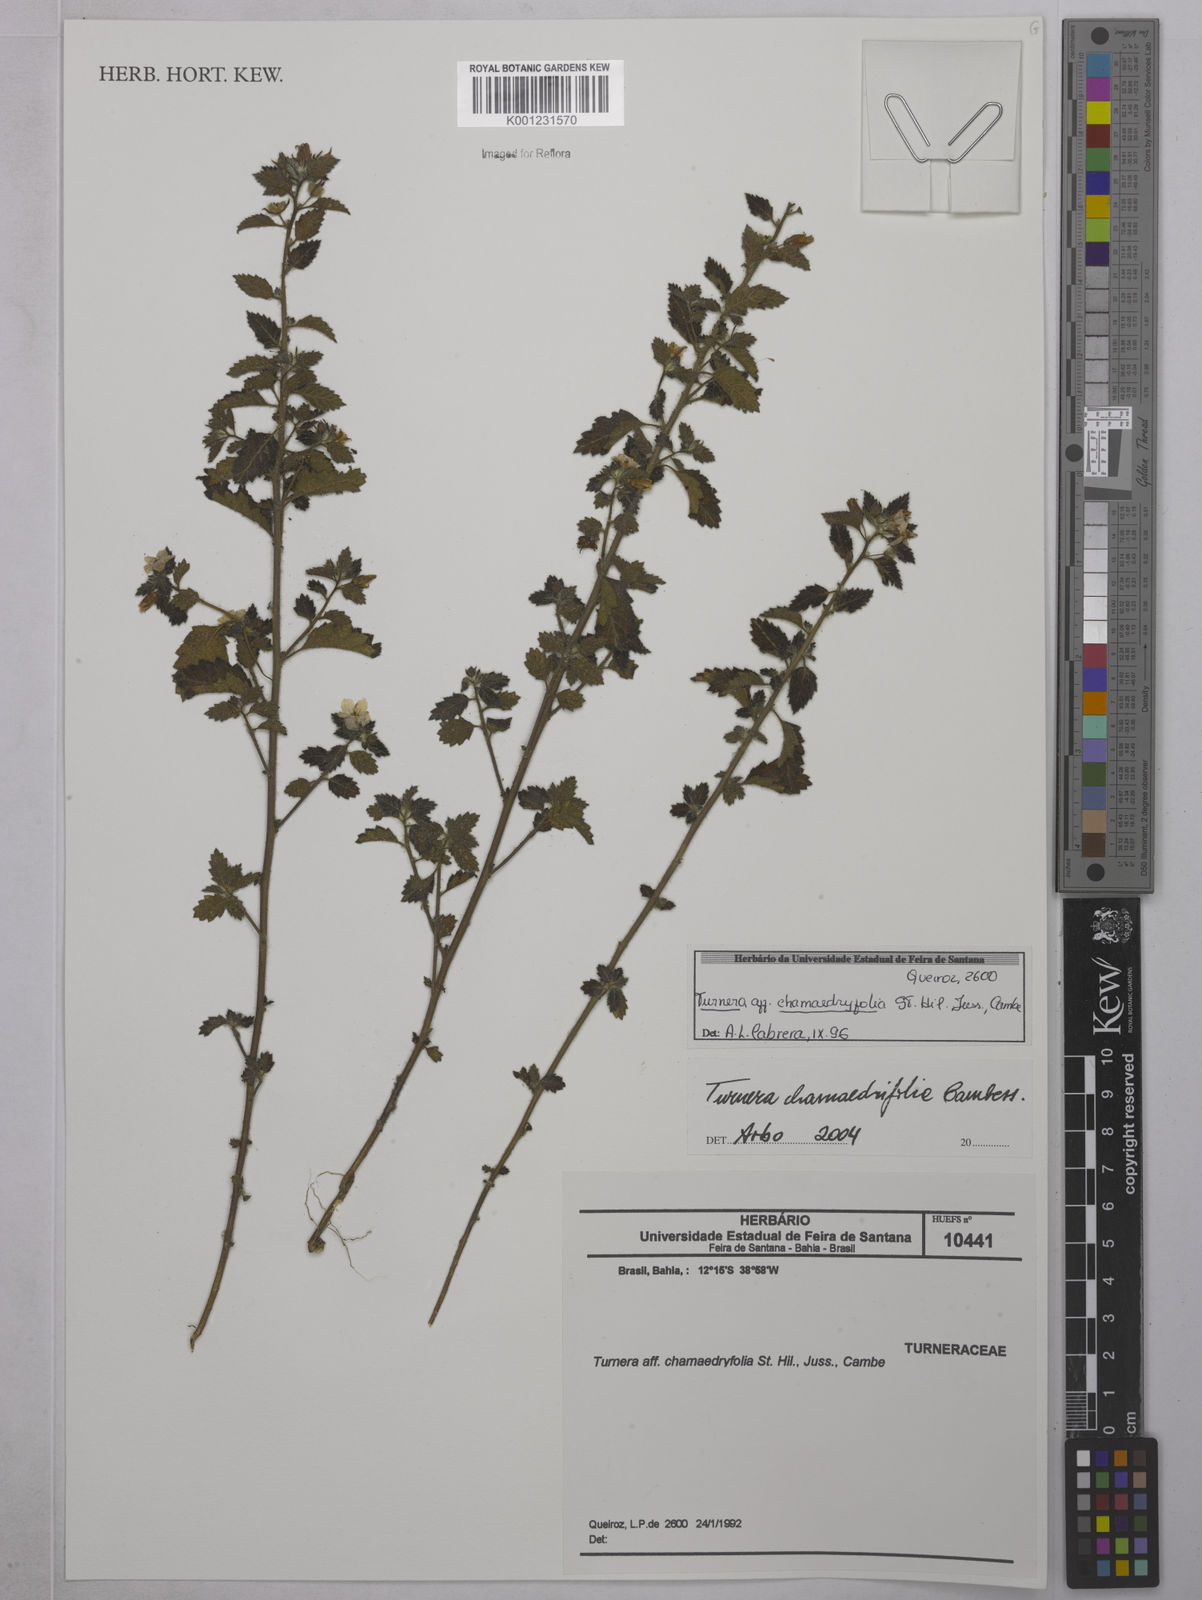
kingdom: Plantae
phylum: Tracheophyta
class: Magnoliopsida
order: Malpighiales
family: Turneraceae
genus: Turnera
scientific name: Turnera chamaedrifolia
